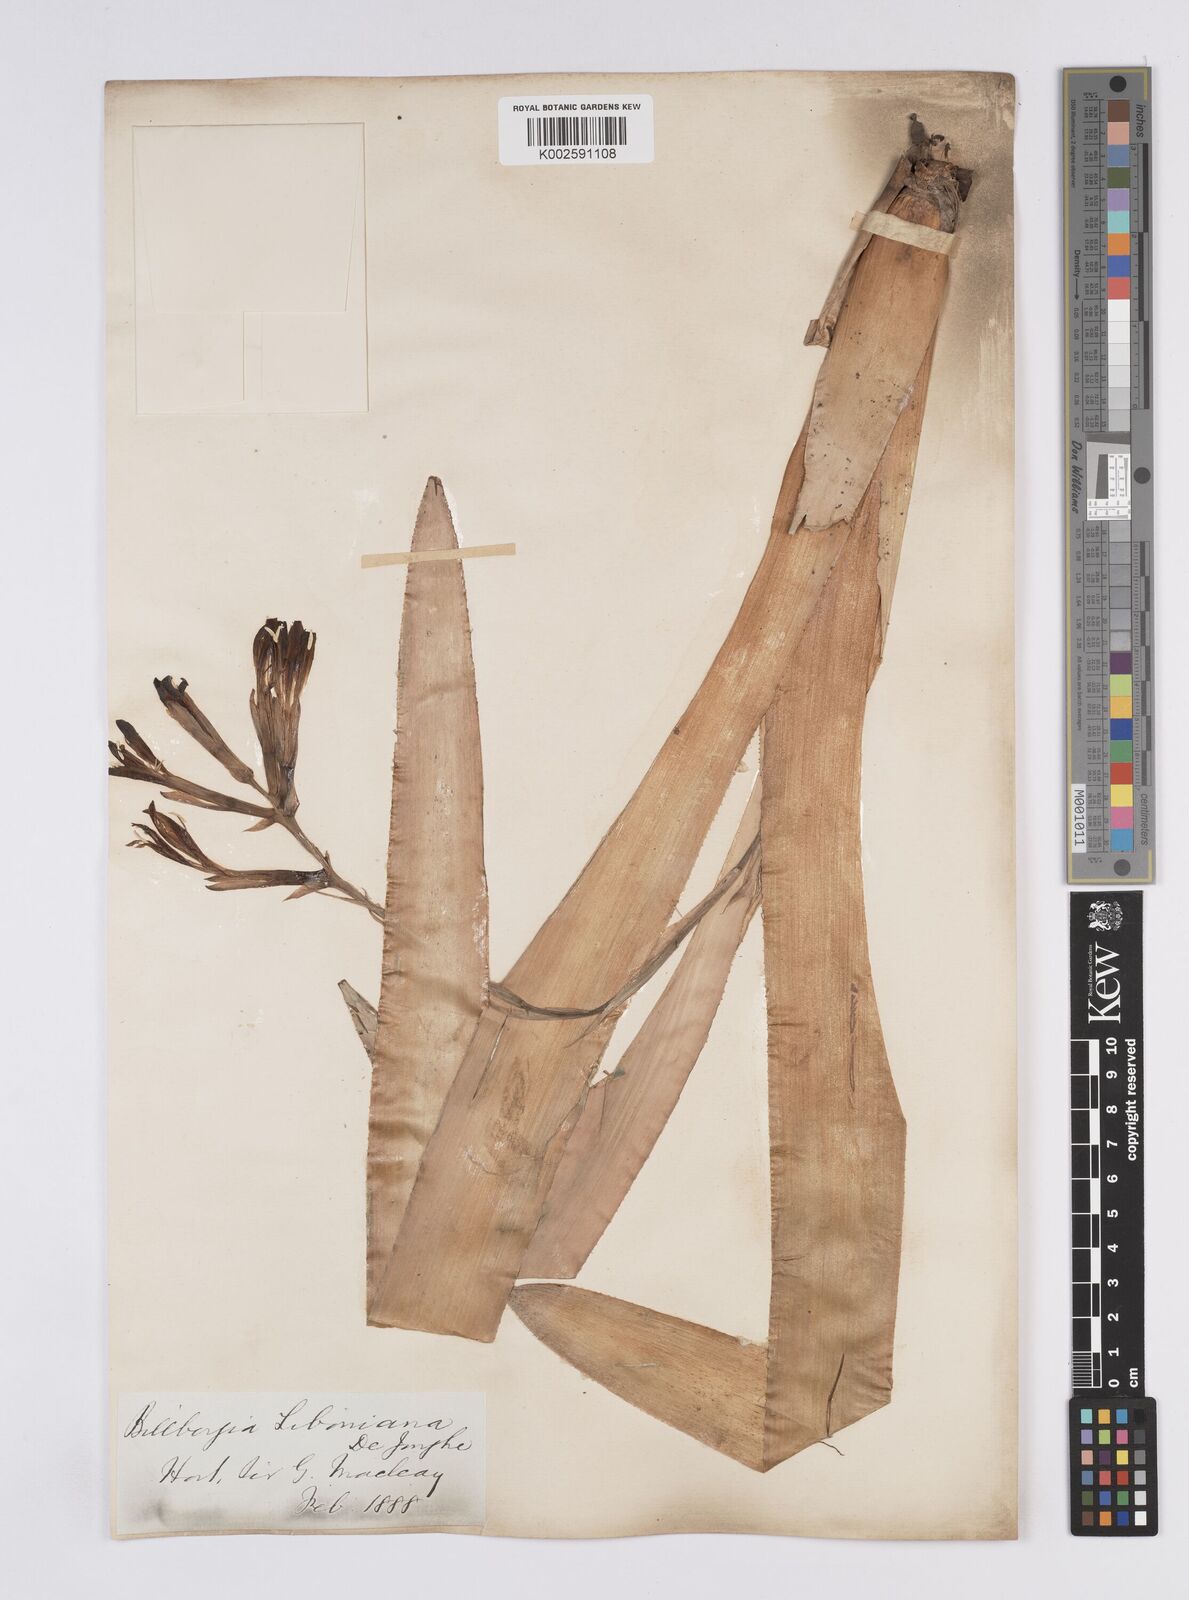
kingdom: Plantae
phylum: Tracheophyta
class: Liliopsida
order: Poales
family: Bromeliaceae
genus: Quesnelia
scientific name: Quesnelia liboniana
